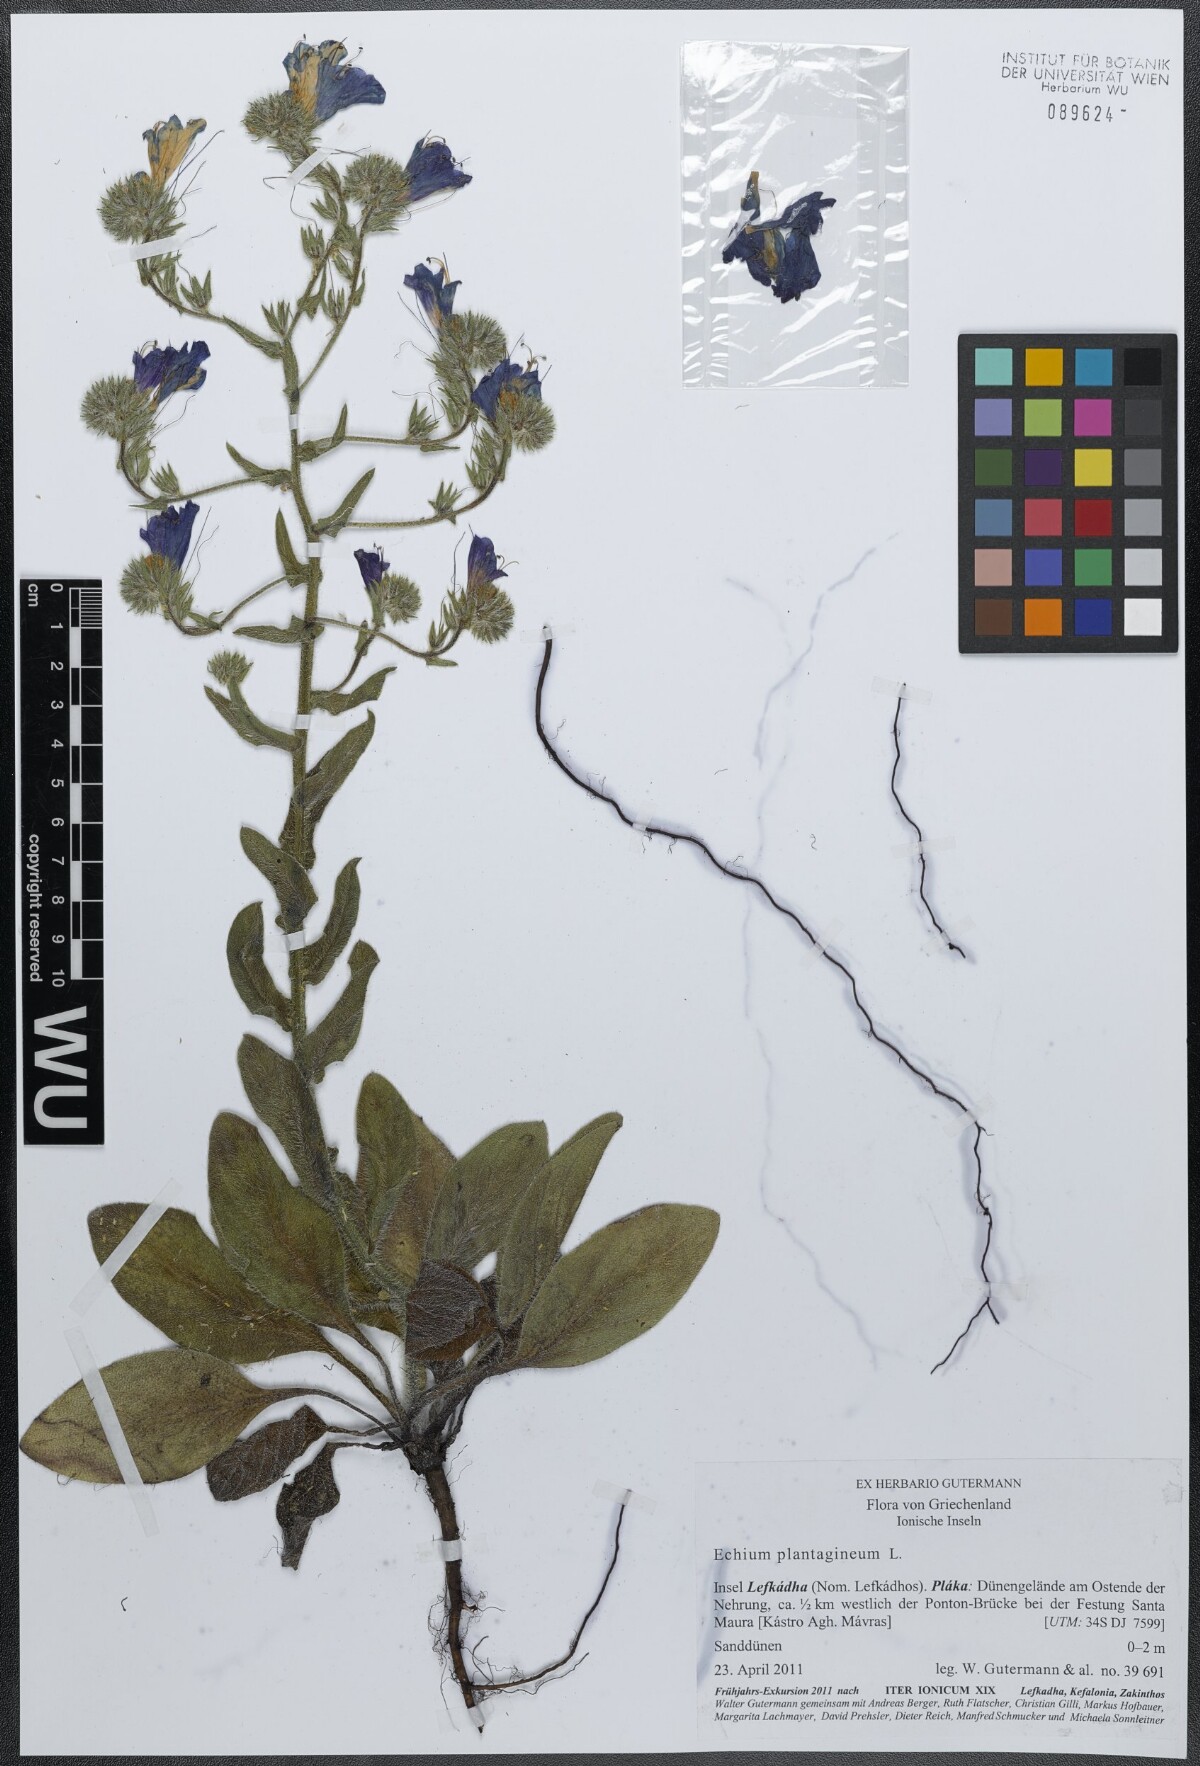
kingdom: Plantae
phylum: Tracheophyta
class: Magnoliopsida
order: Boraginales
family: Boraginaceae
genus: Echium
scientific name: Echium plantagineum
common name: Purple viper's-bugloss
